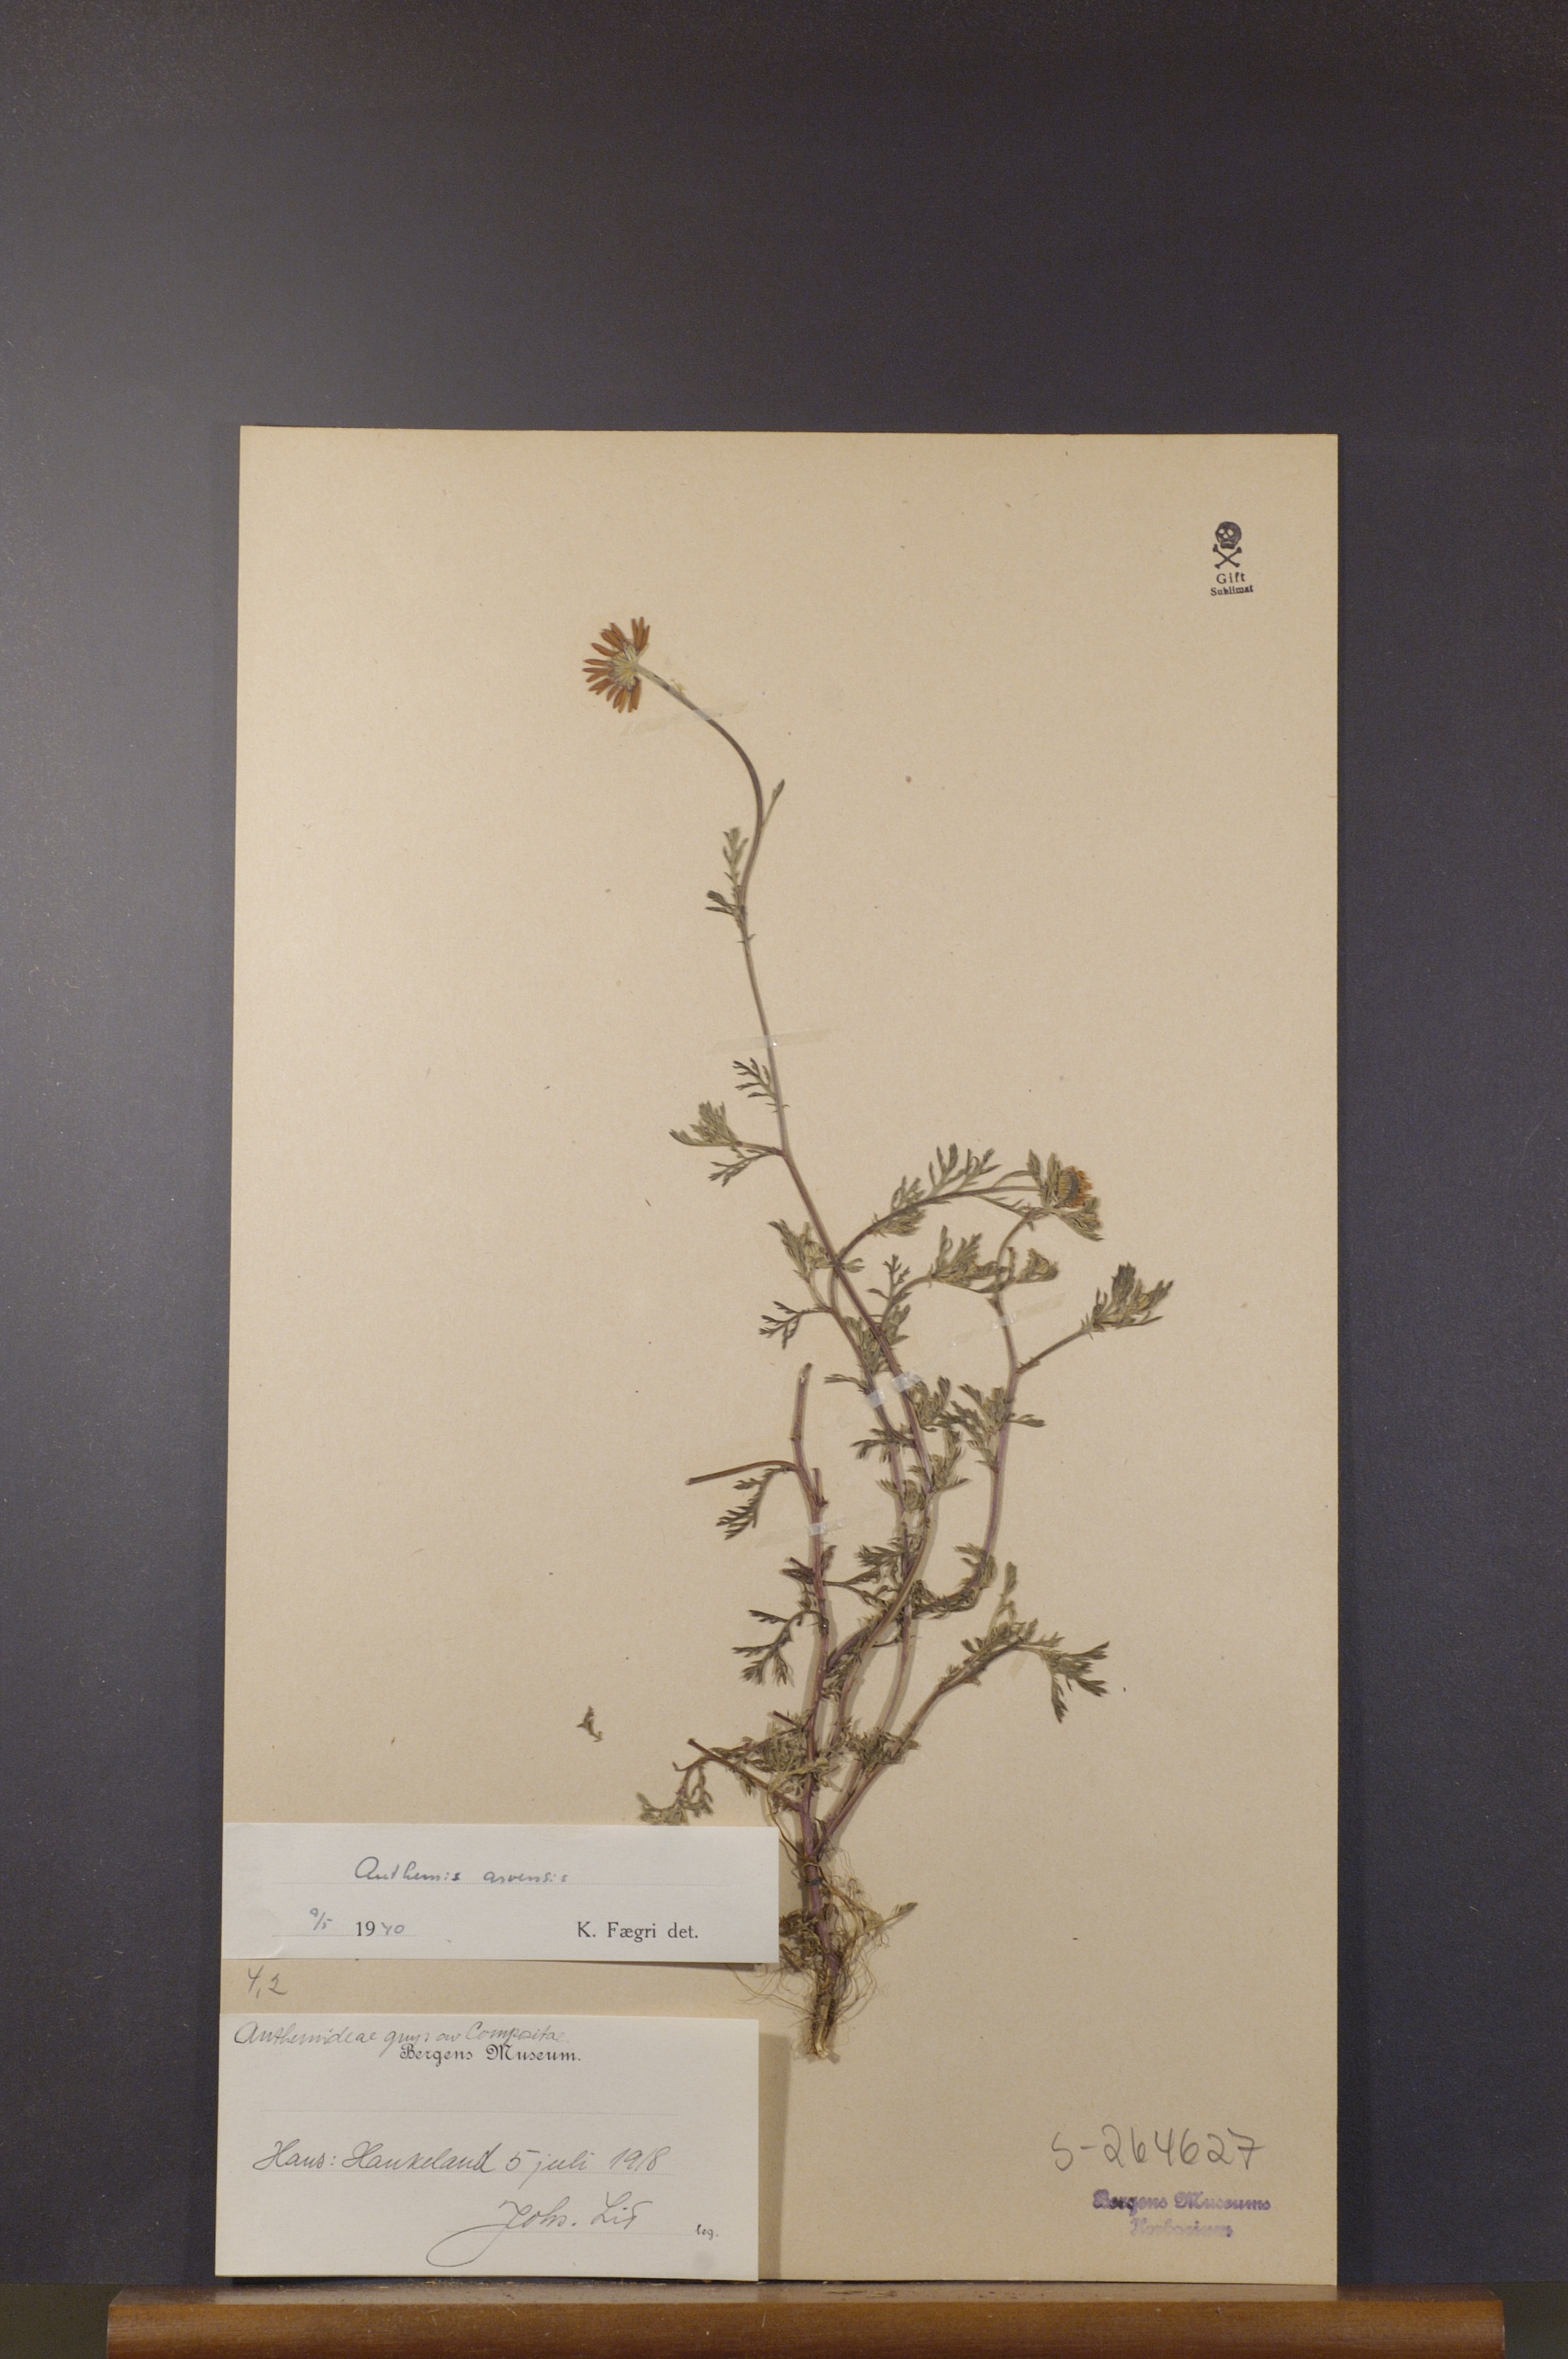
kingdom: Plantae
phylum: Tracheophyta
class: Magnoliopsida
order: Asterales
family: Asteraceae
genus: Anthemis
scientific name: Anthemis arvensis
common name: Corn chamomile
